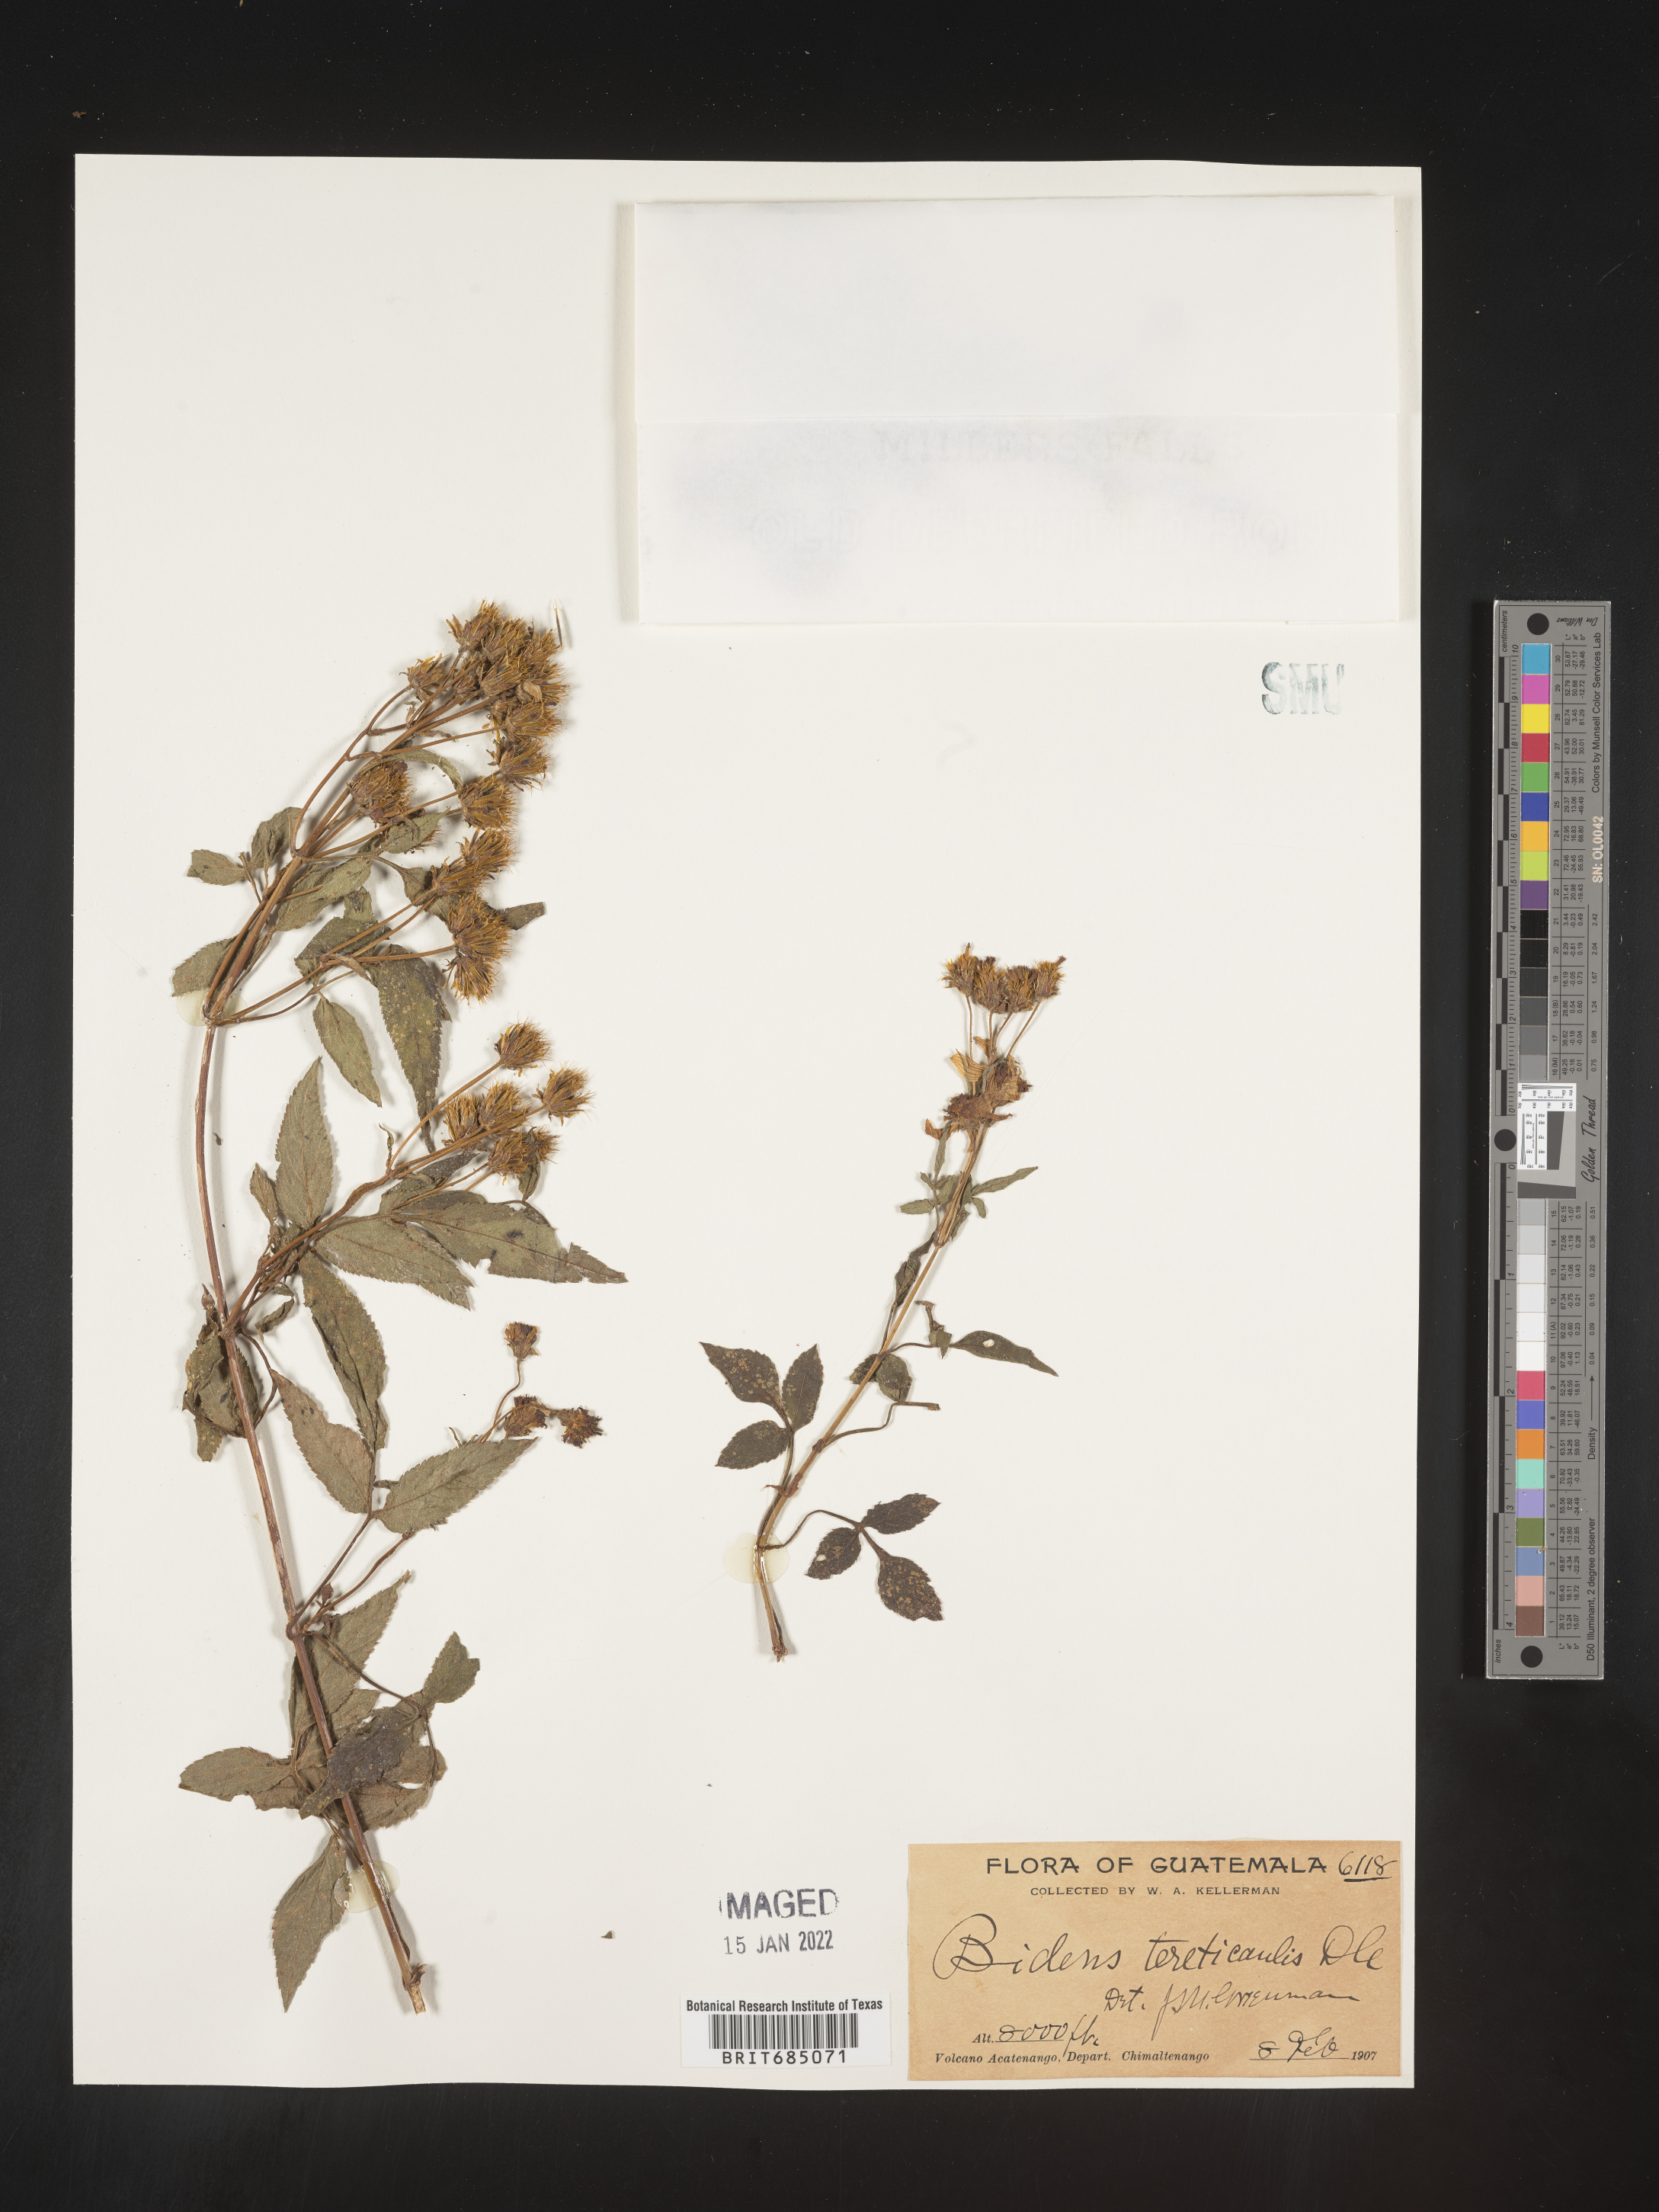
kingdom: Plantae
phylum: Tracheophyta
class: Magnoliopsida
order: Asterales
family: Asteraceae
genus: Bidens
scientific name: Bidens
